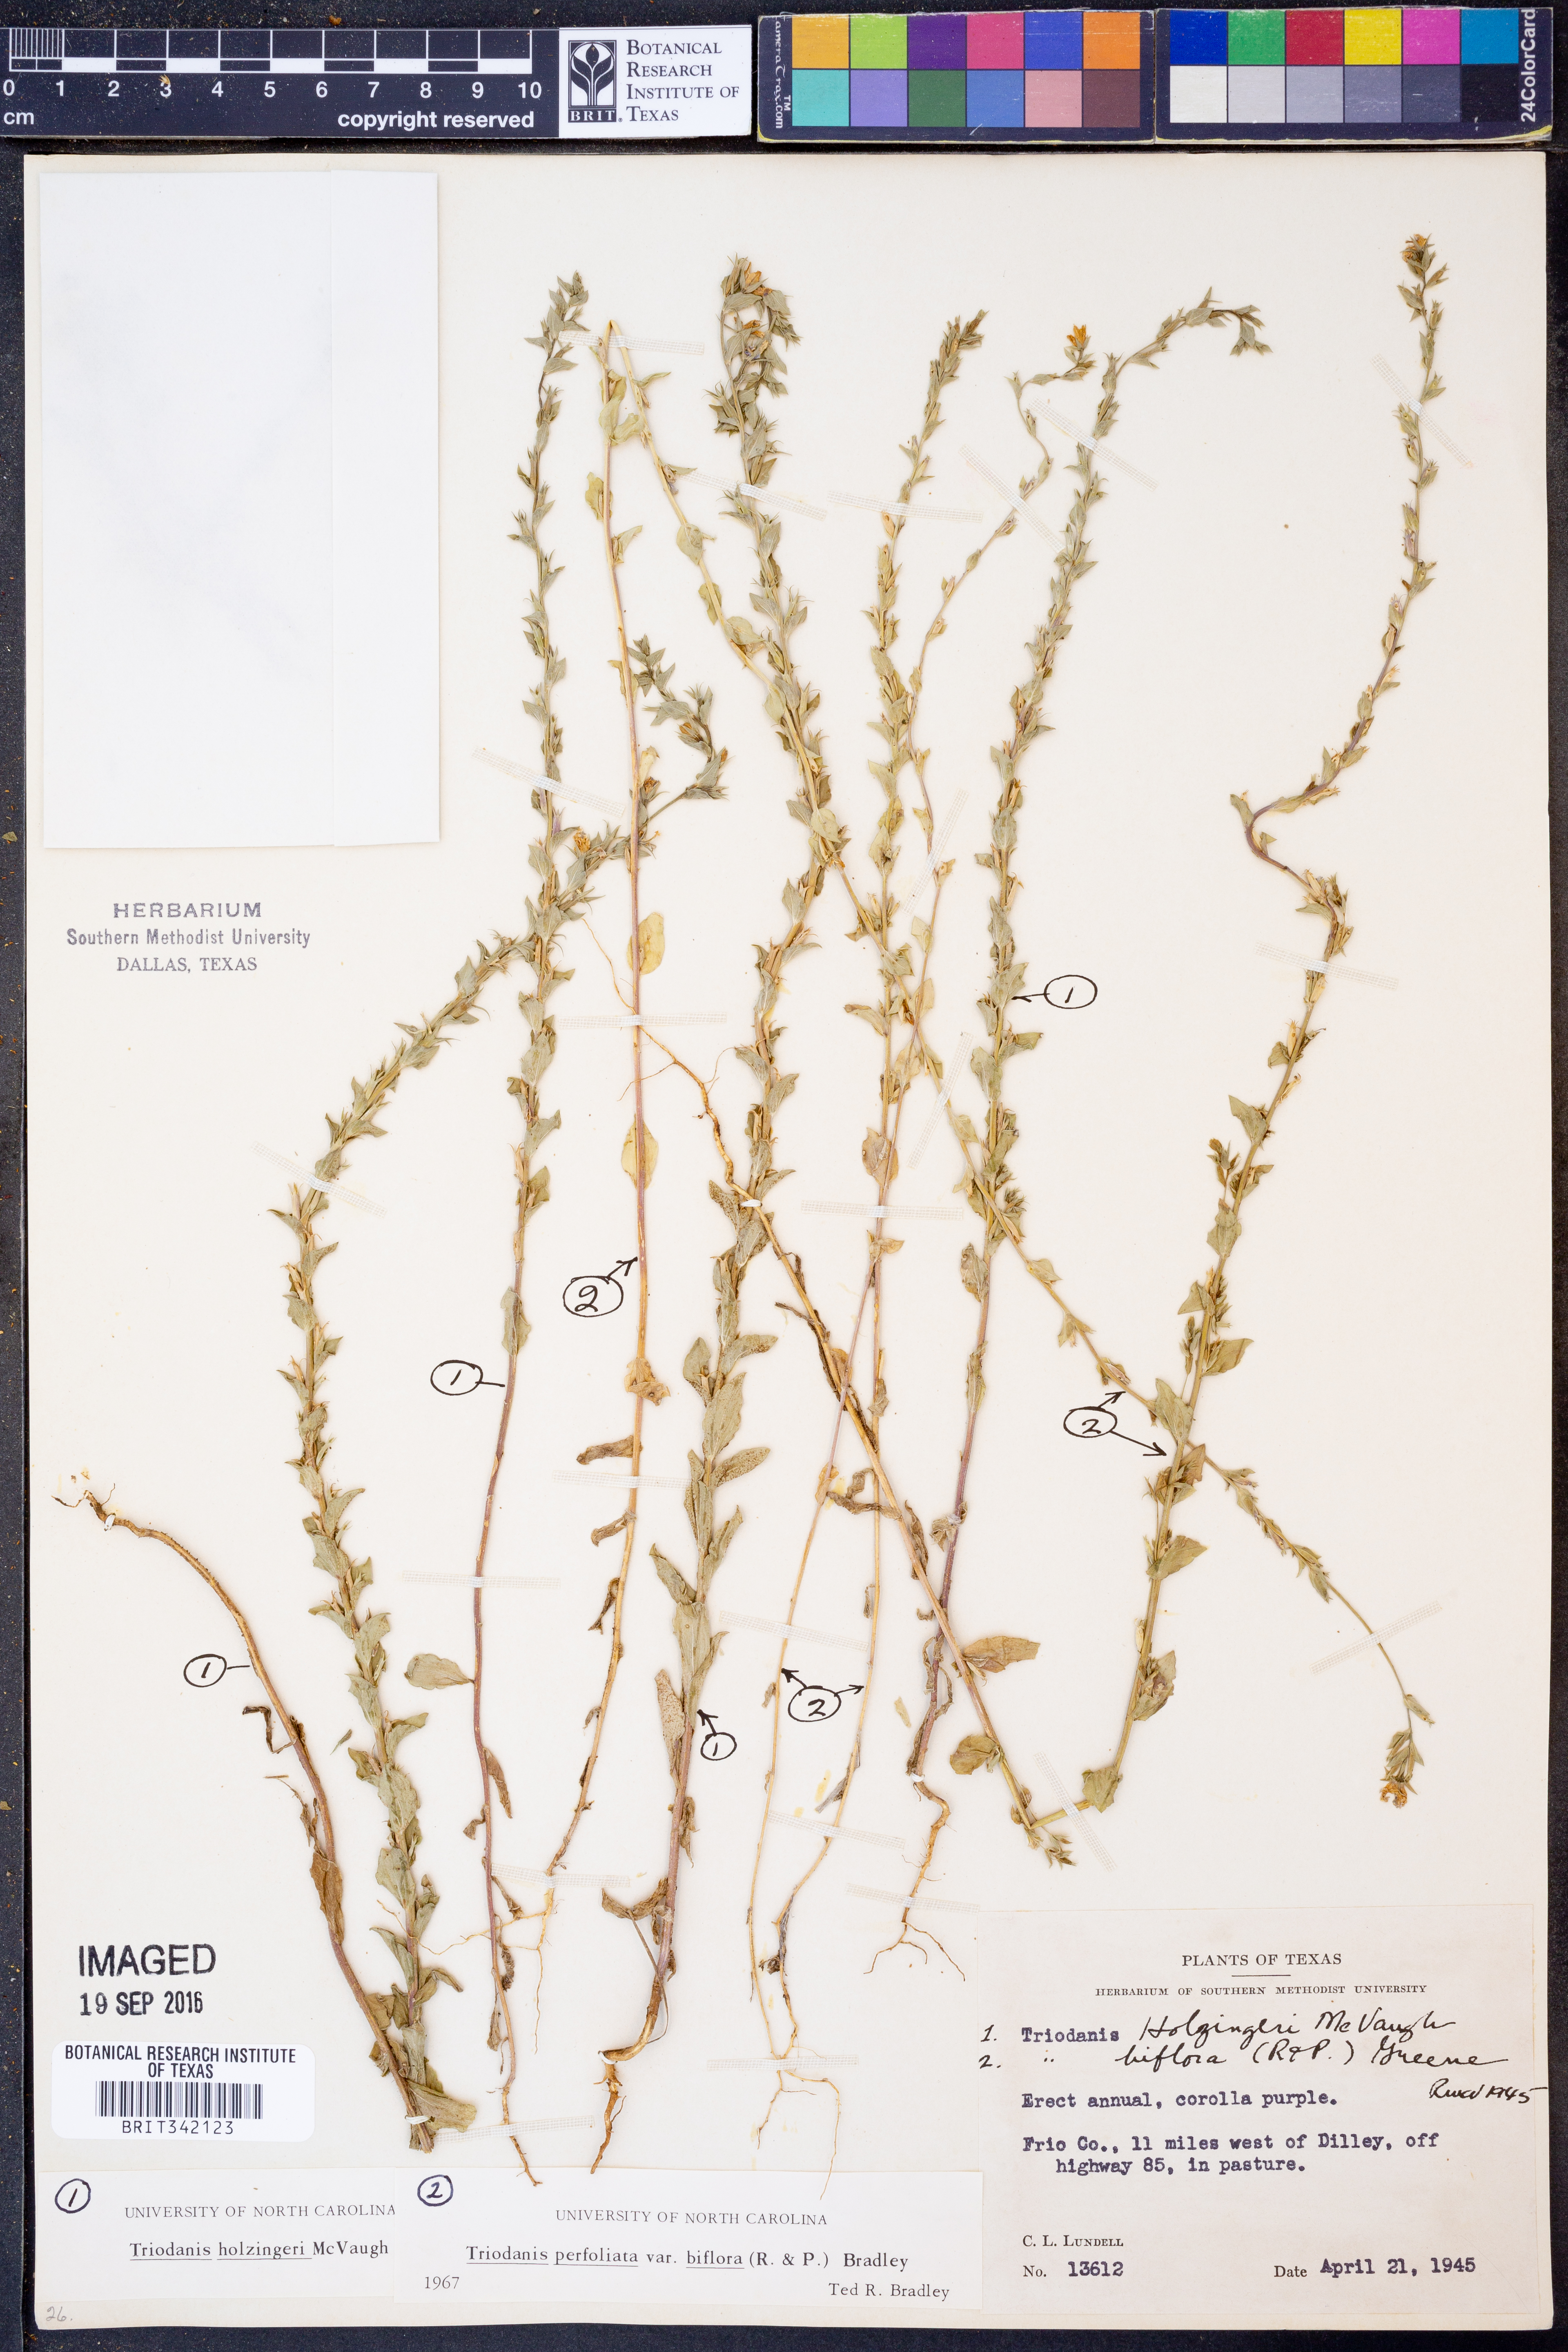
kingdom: Plantae
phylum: Tracheophyta
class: Magnoliopsida
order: Asterales
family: Campanulaceae
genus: Triodanis
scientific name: Triodanis holzingeri
